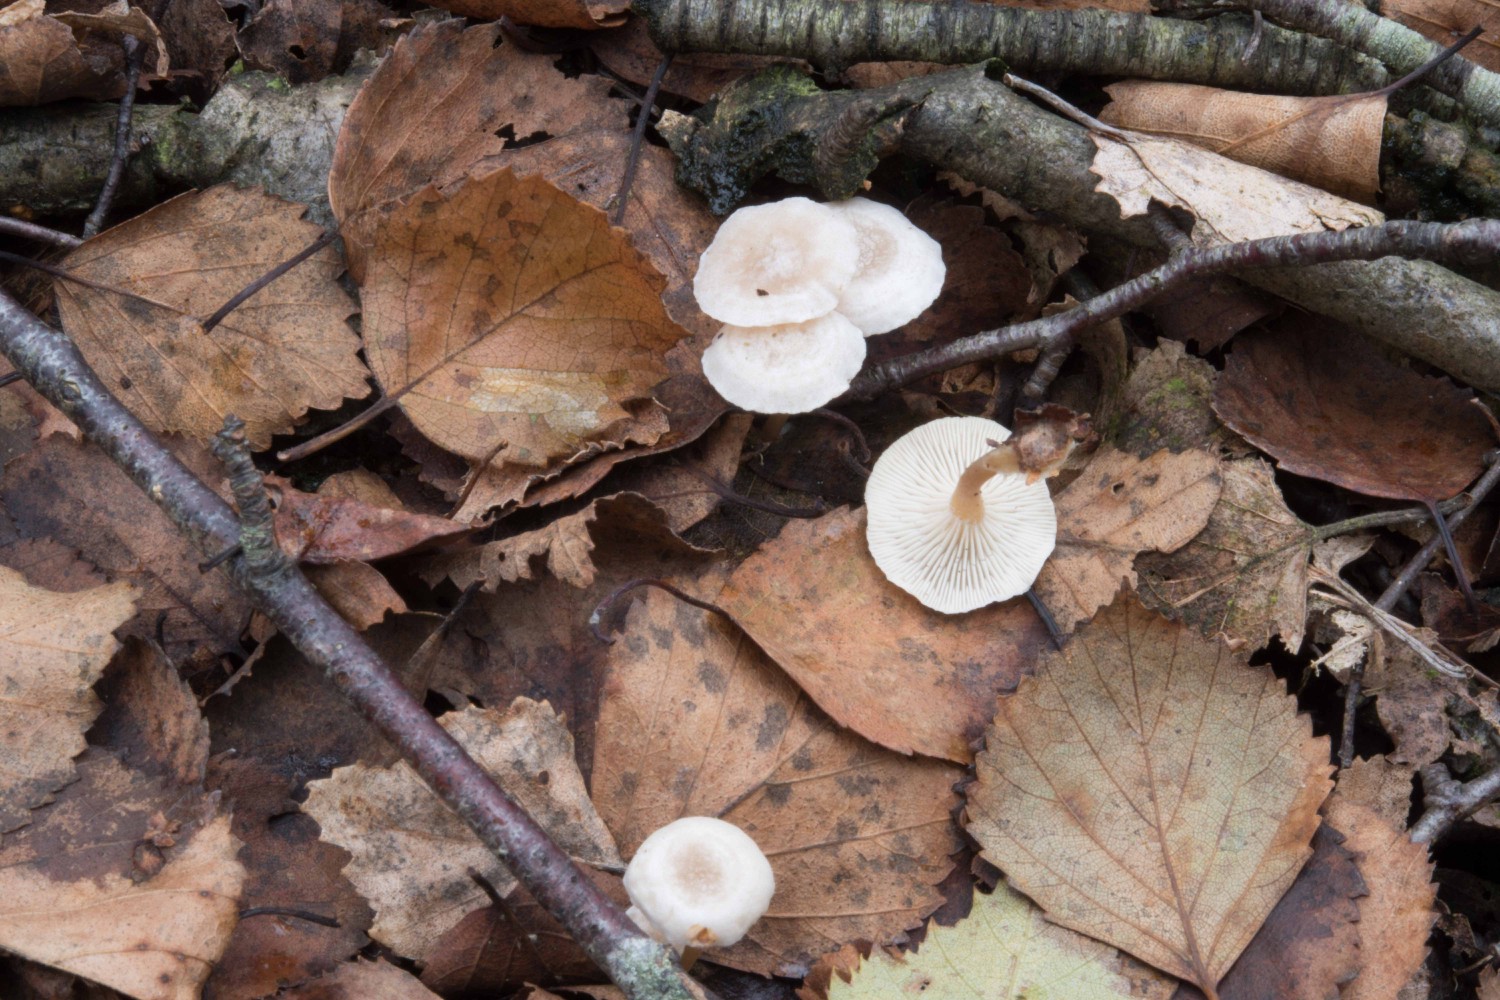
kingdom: Fungi
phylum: Basidiomycota
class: Agaricomycetes
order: Agaricales
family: Tricholomataceae
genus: Leucocybe
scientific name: Leucocybe candicans
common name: kridt-tragthat
